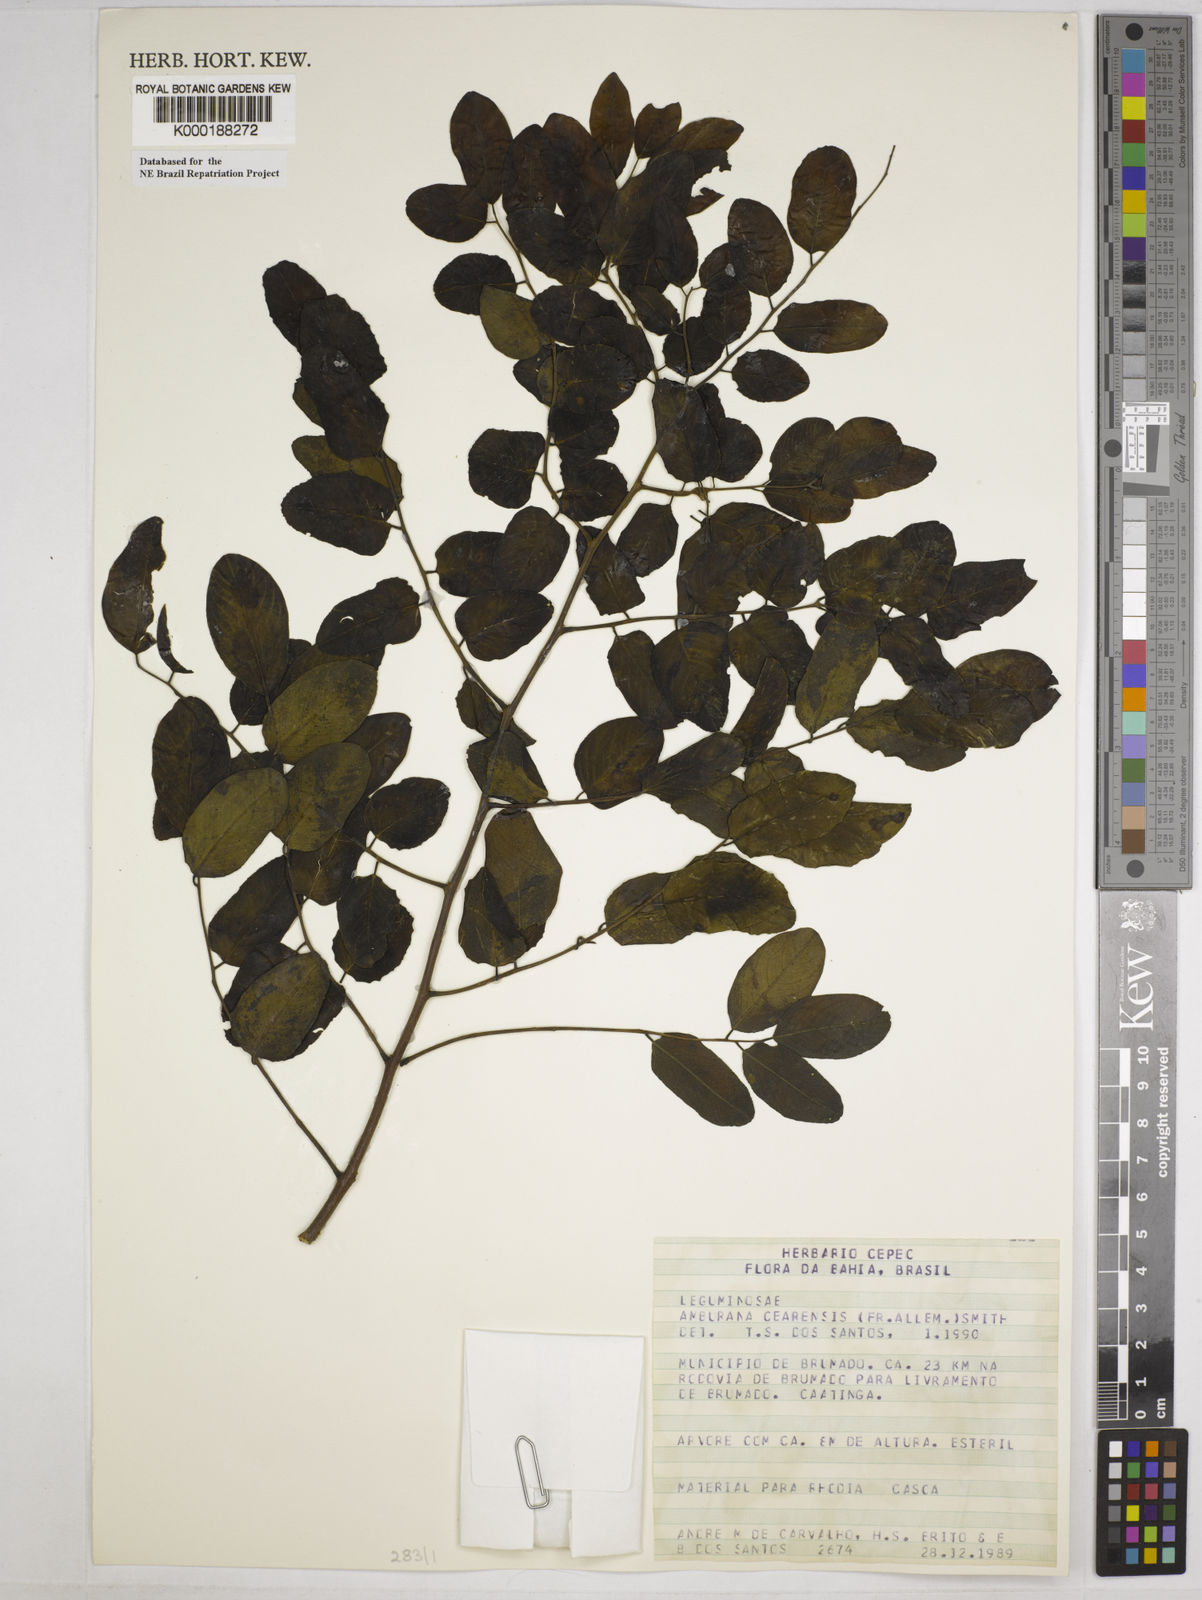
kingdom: Plantae
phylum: Tracheophyta
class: Magnoliopsida
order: Fabales
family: Fabaceae
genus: Amburana
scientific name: Amburana
